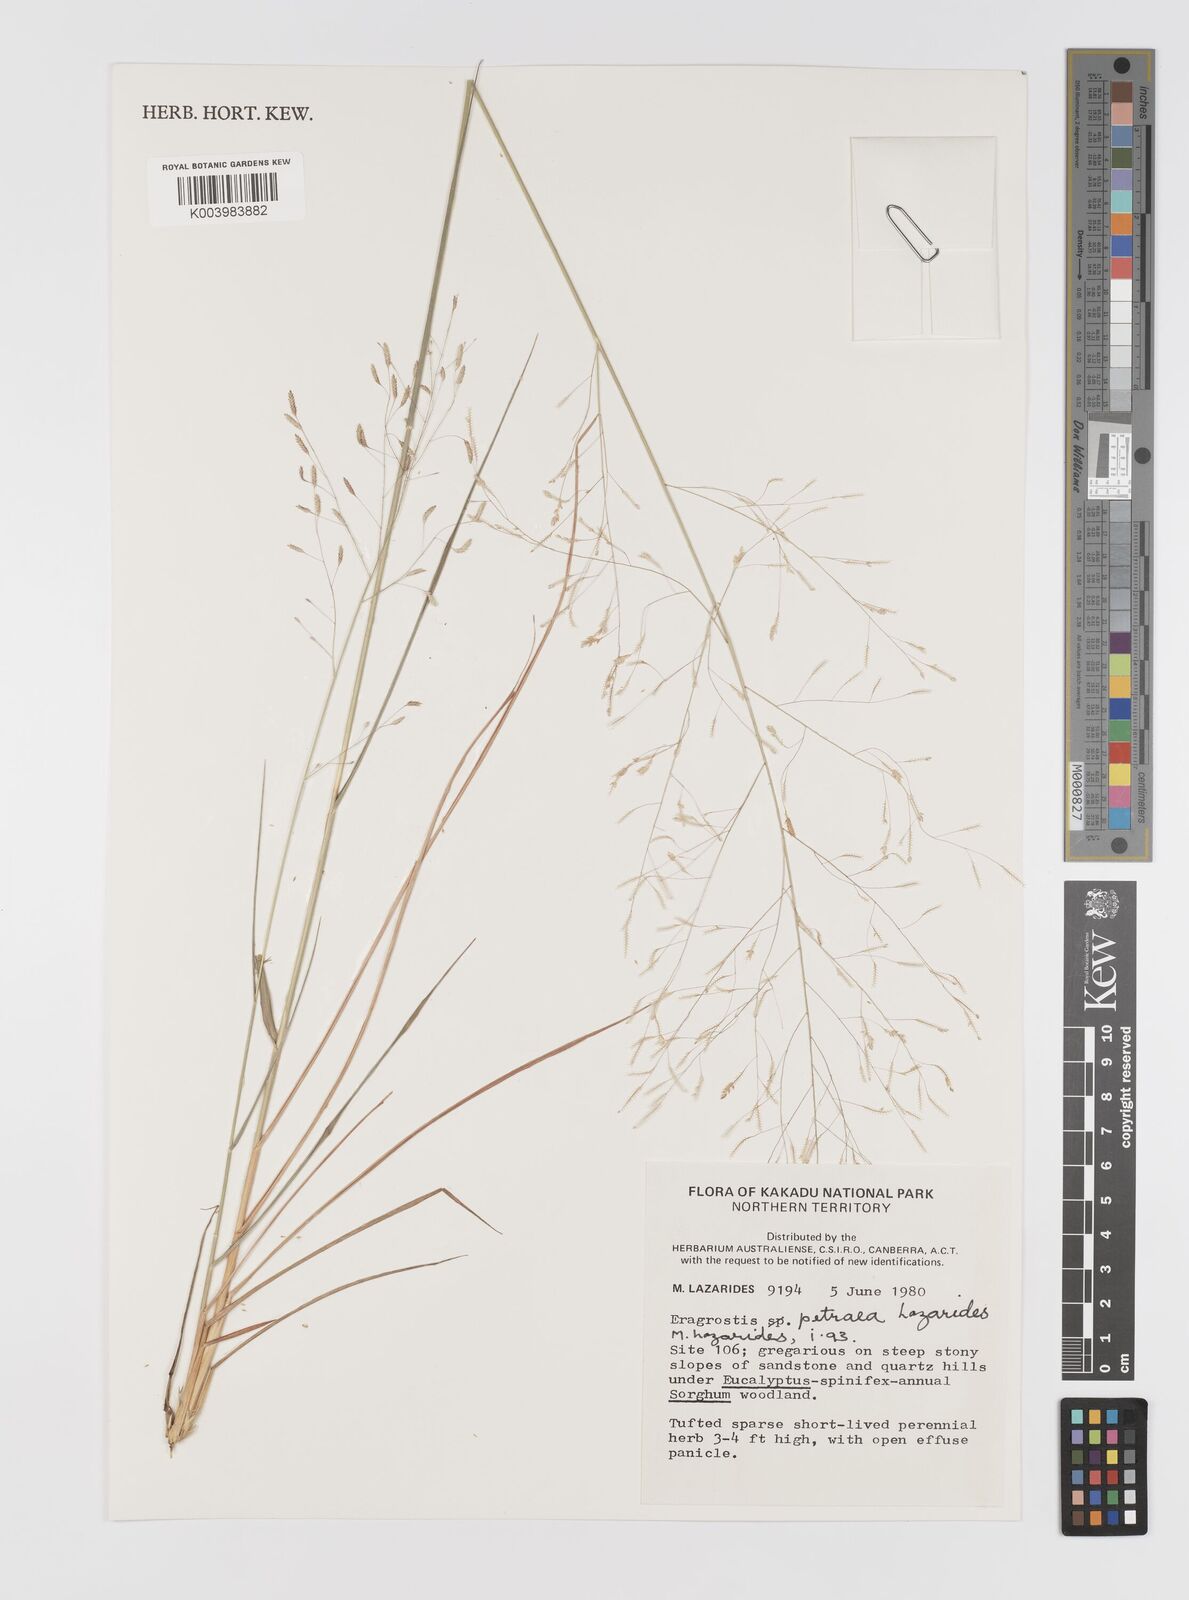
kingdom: Plantae
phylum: Tracheophyta
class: Liliopsida
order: Poales
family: Poaceae
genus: Eragrostis
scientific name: Eragrostis petraea
